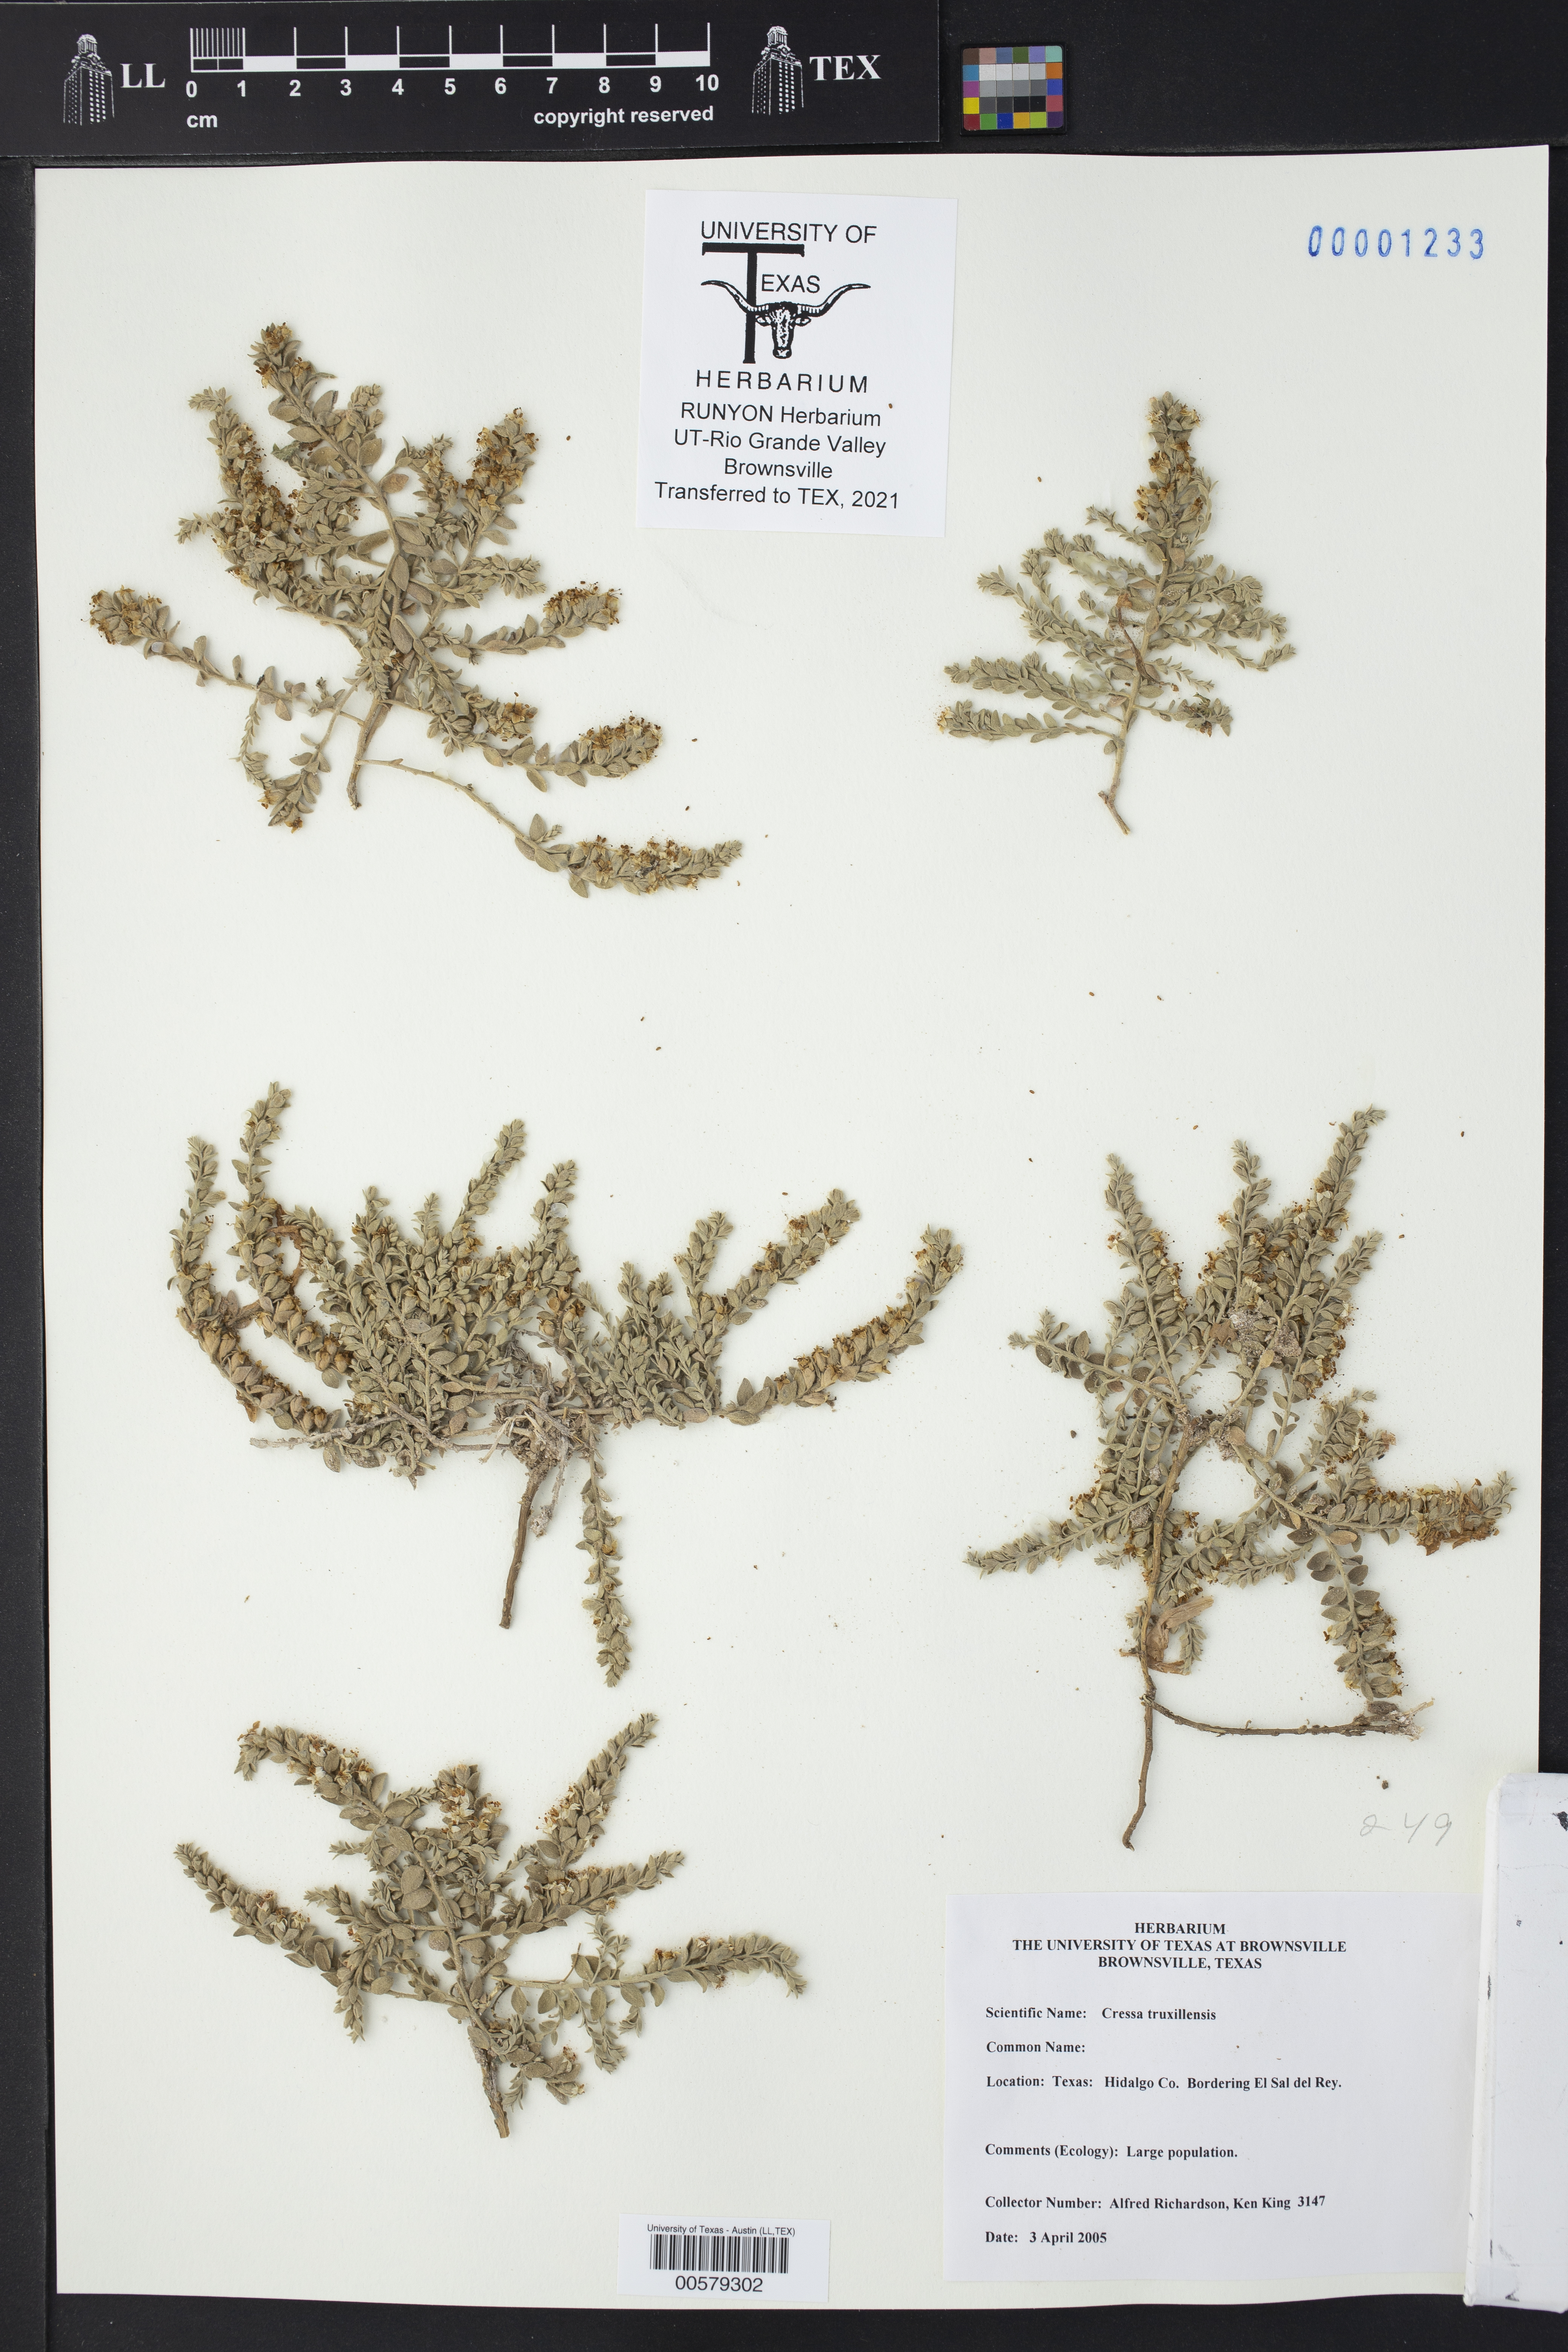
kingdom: Plantae
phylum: Tracheophyta
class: Magnoliopsida
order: Solanales
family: Convolvulaceae
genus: Cressa
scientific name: Cressa truxillensis
